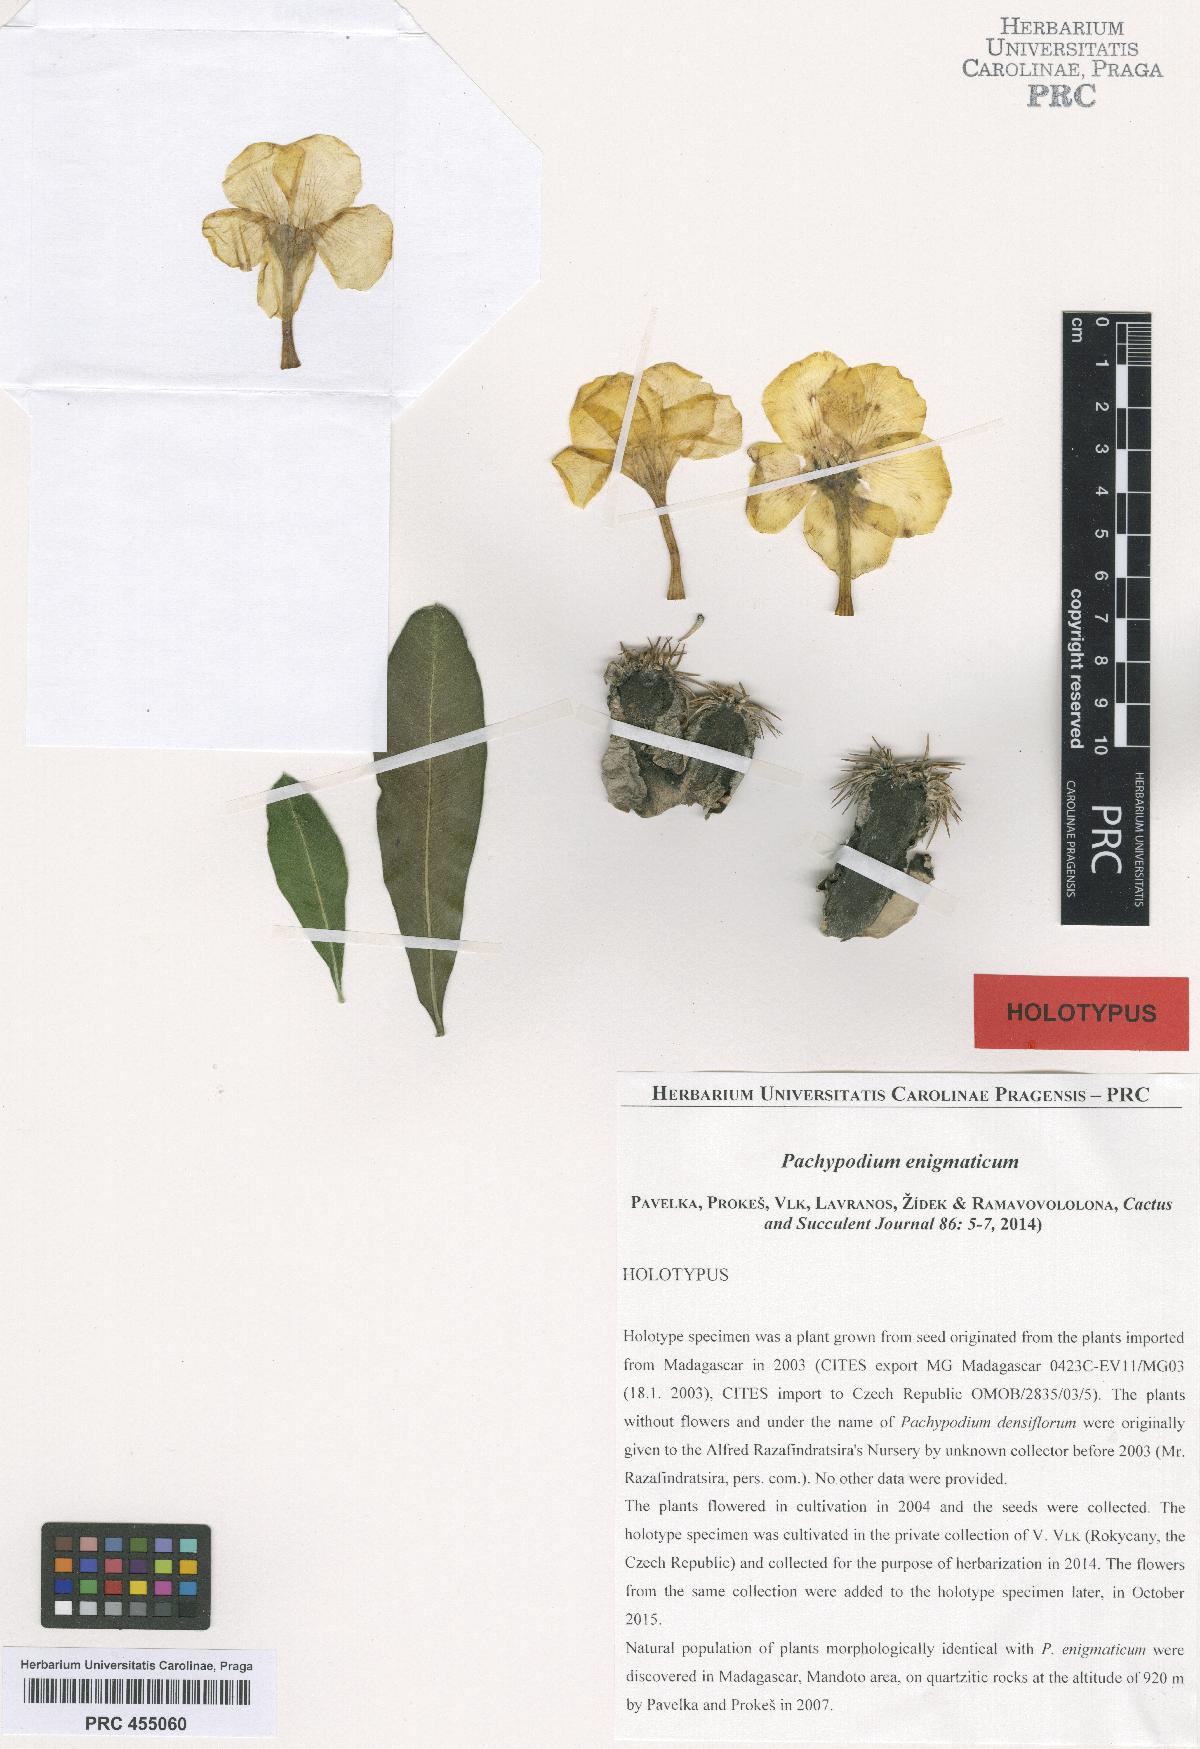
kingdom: Plantae
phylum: Tracheophyta
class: Magnoliopsida
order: Gentianales
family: Apocynaceae
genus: Pachypodium
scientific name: Pachypodium enigmaticum
